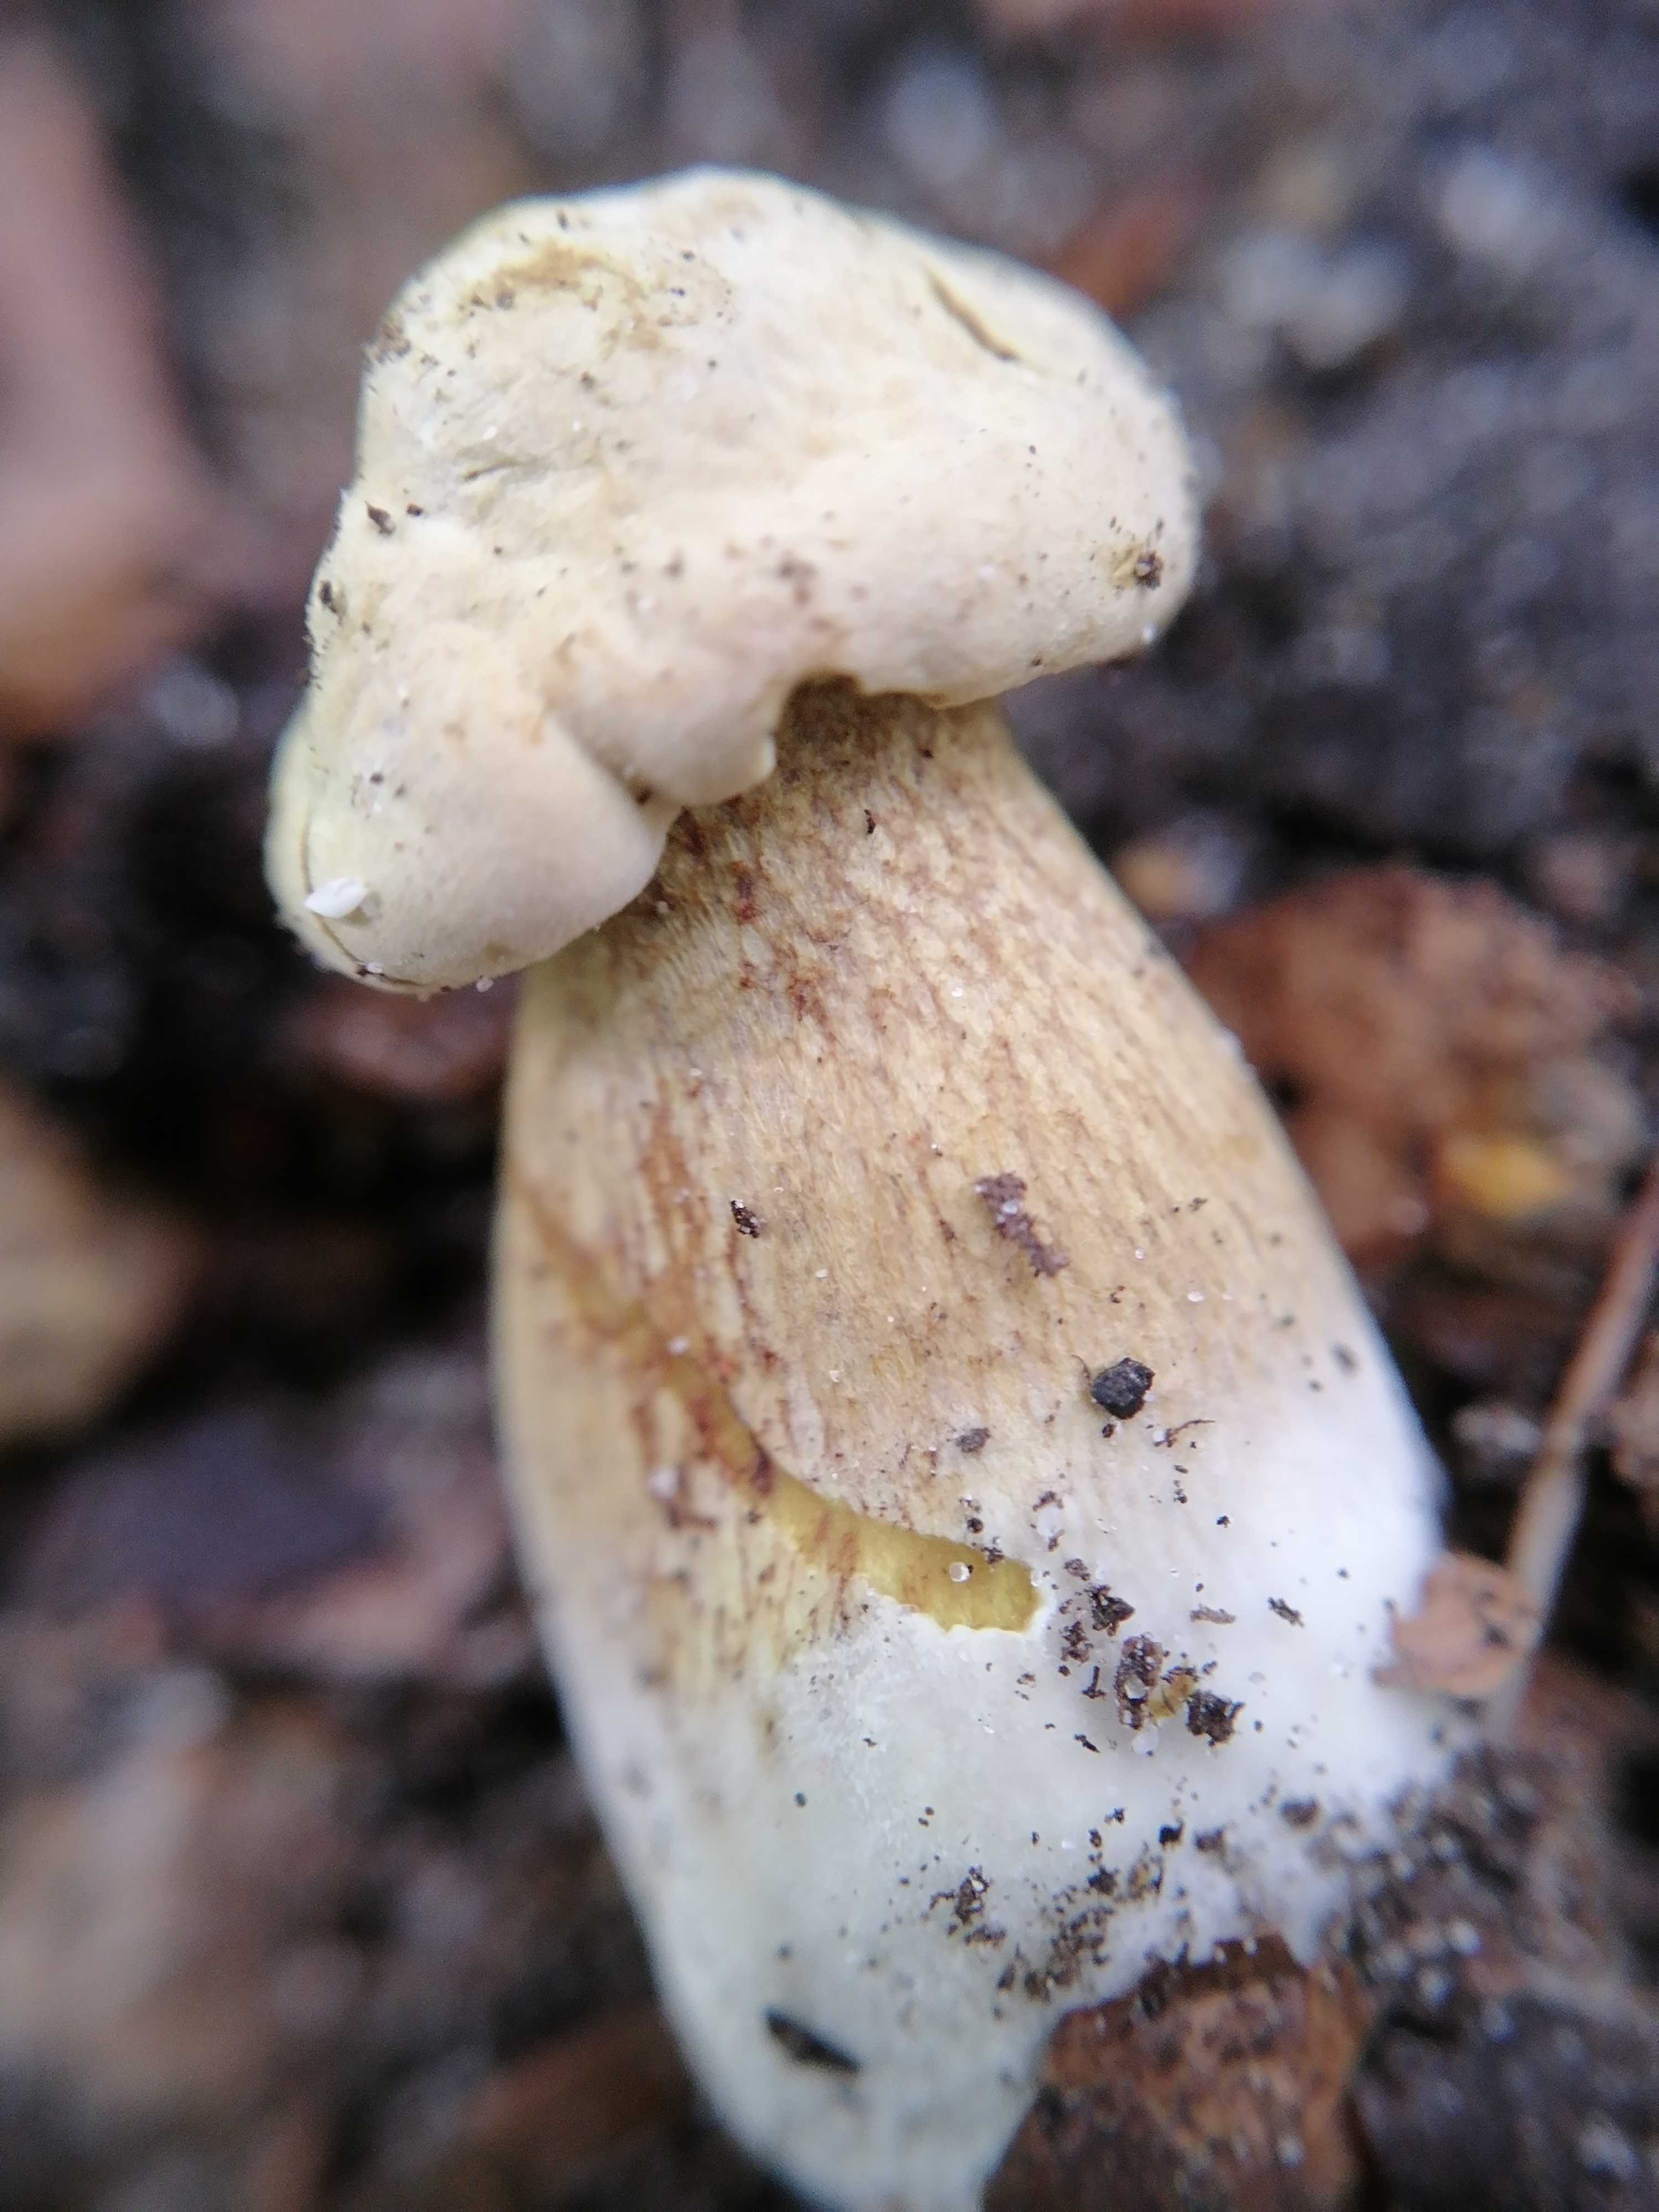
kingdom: Fungi
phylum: Basidiomycota
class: Agaricomycetes
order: Agaricales
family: Tricholomataceae
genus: Tricholoma
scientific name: Tricholoma sulphureum
